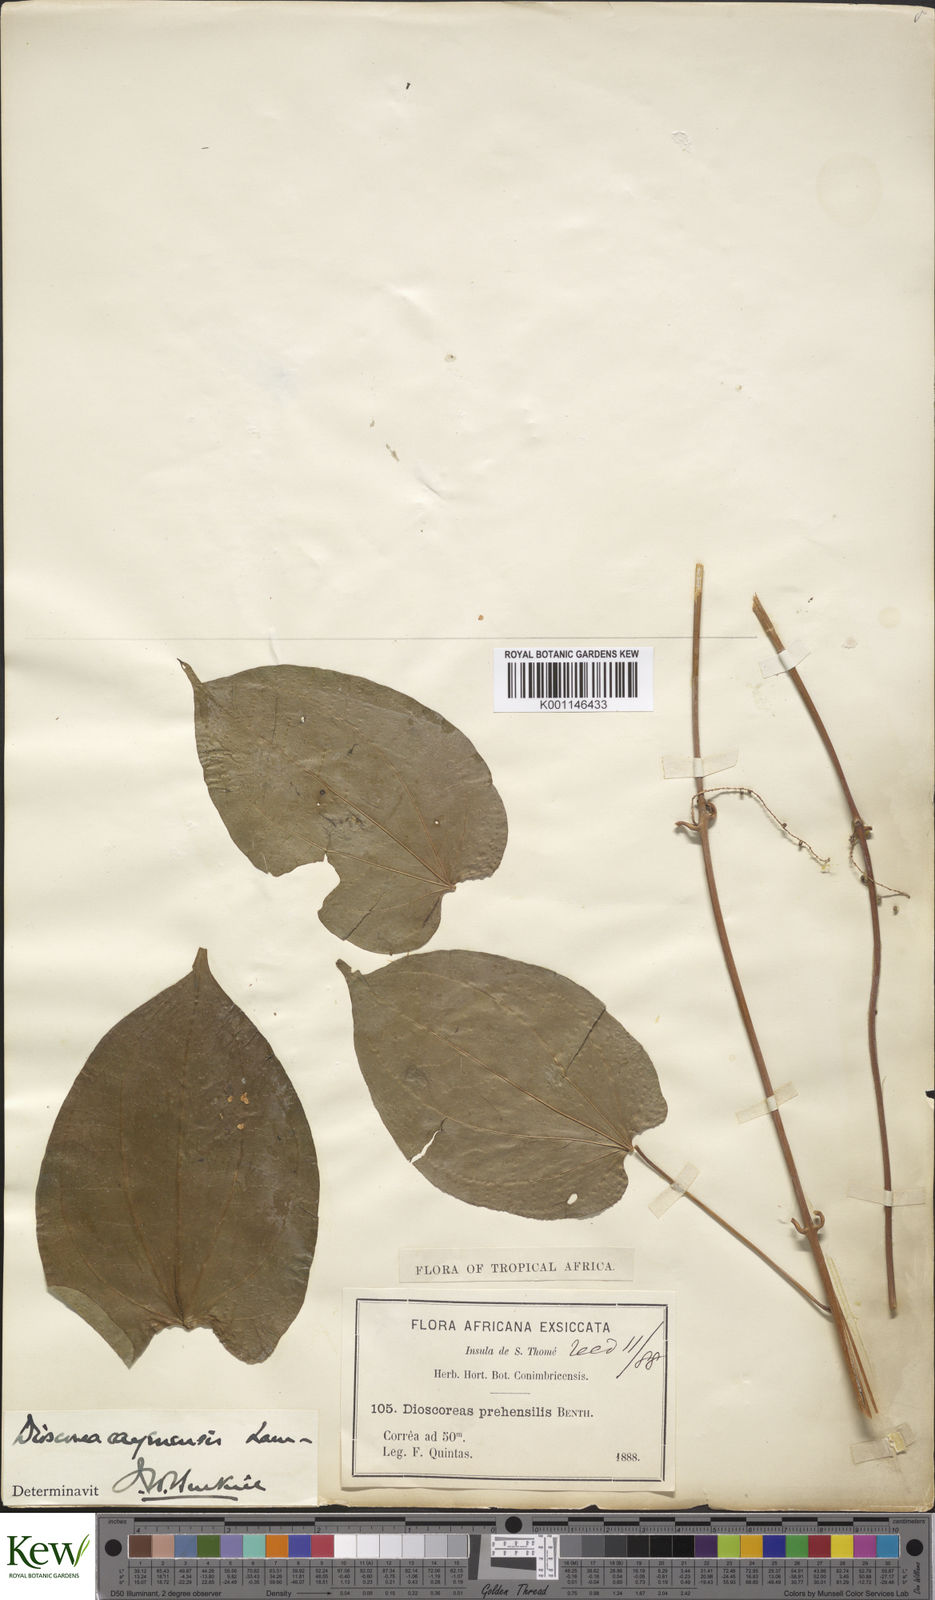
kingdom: Plantae
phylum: Tracheophyta
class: Liliopsida
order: Dioscoreales
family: Dioscoreaceae
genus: Dioscorea
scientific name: Dioscorea praehensilis
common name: Bush yam
